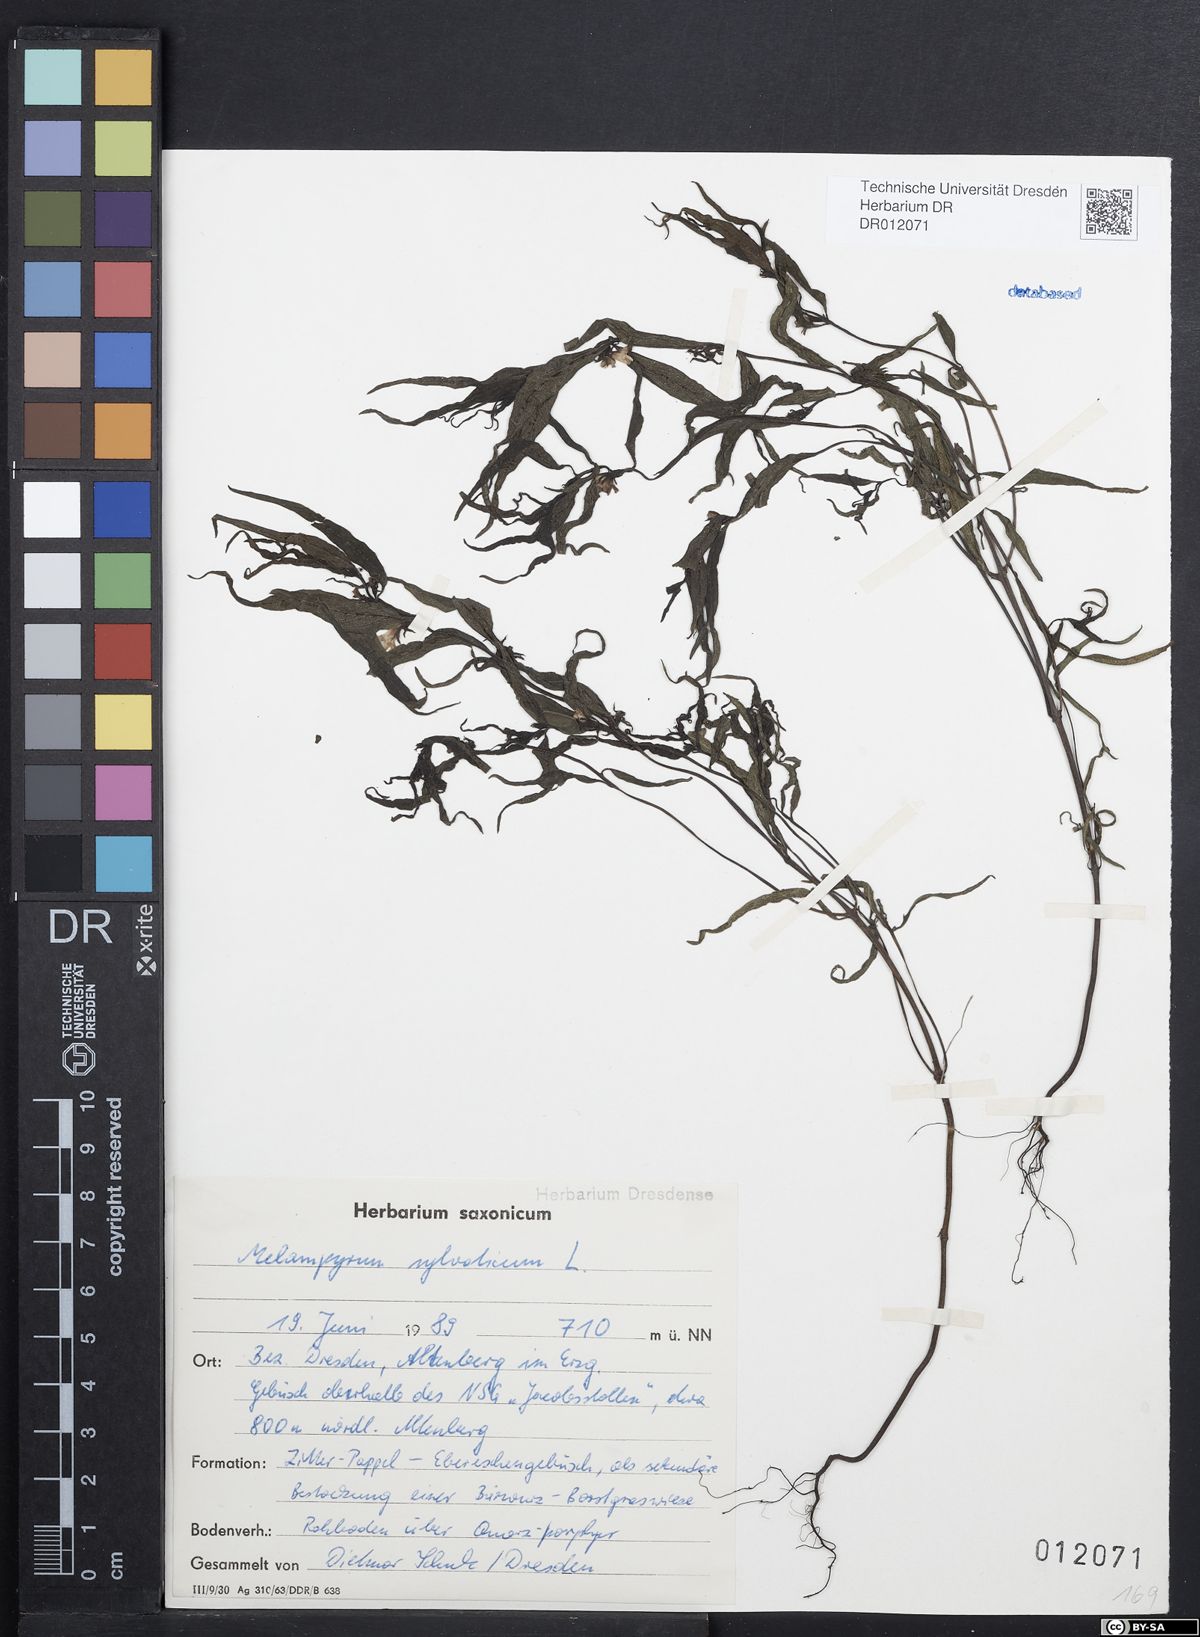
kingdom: Plantae
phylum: Tracheophyta
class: Magnoliopsida
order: Lamiales
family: Orobanchaceae
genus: Melampyrum
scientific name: Melampyrum sylvaticum
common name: Small cow-wheat
